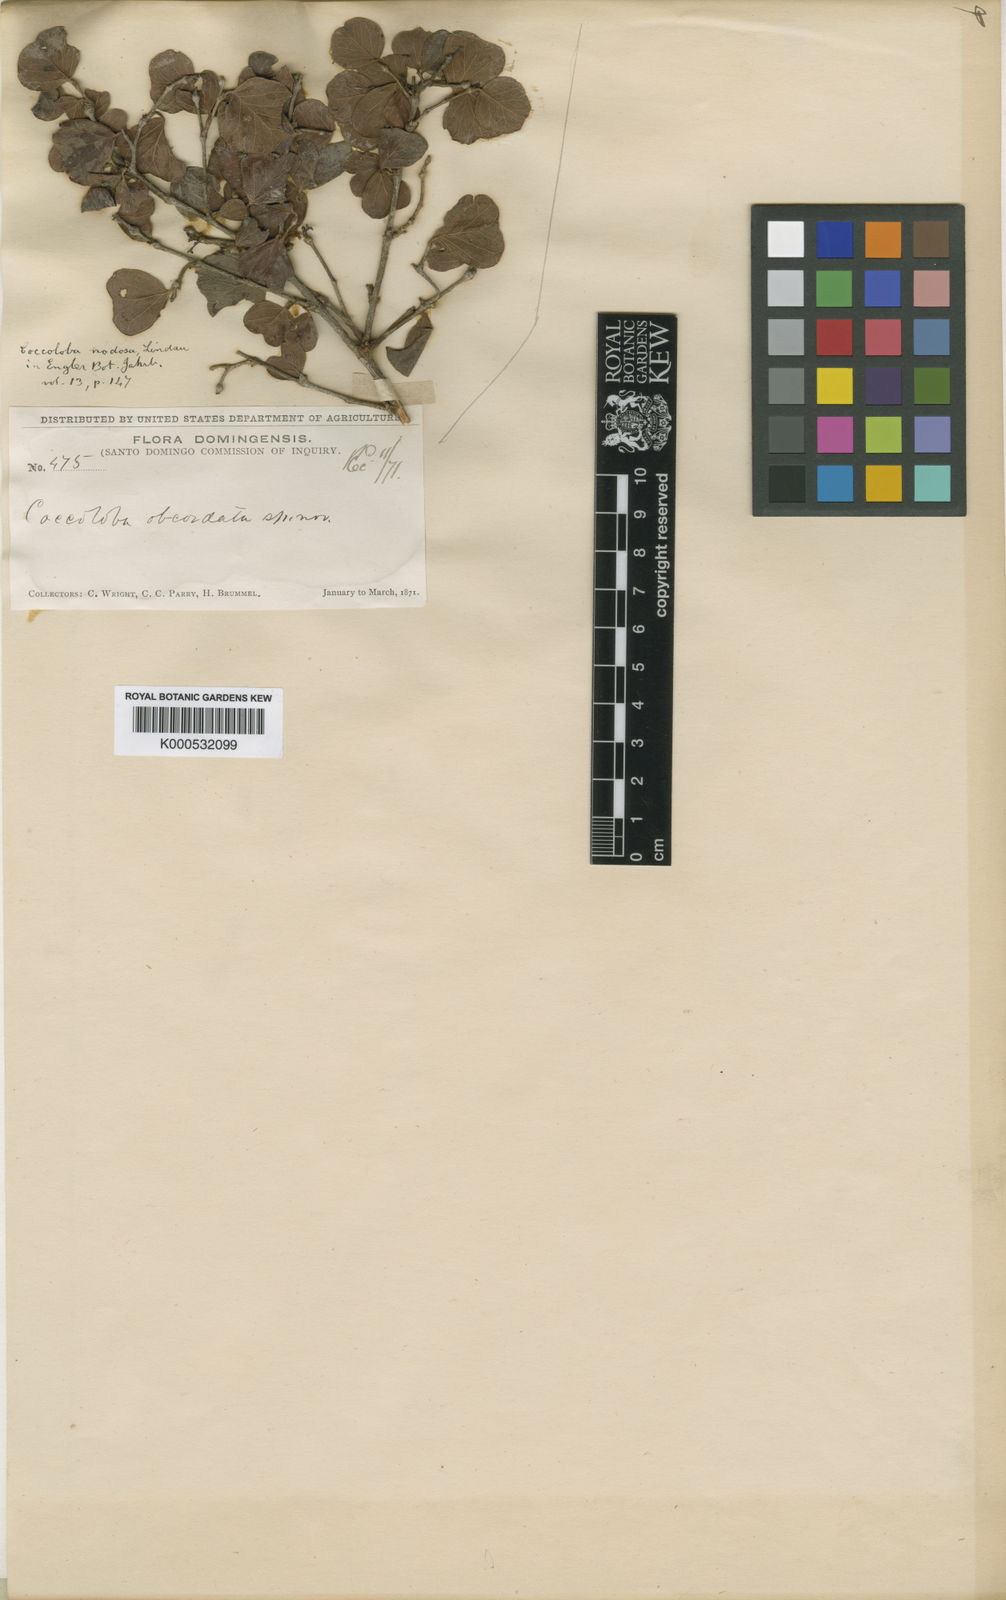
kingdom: Plantae
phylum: Tracheophyta
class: Magnoliopsida
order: Caryophyllales
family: Polygonaceae
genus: Coccoloba
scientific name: Coccoloba nodosa
